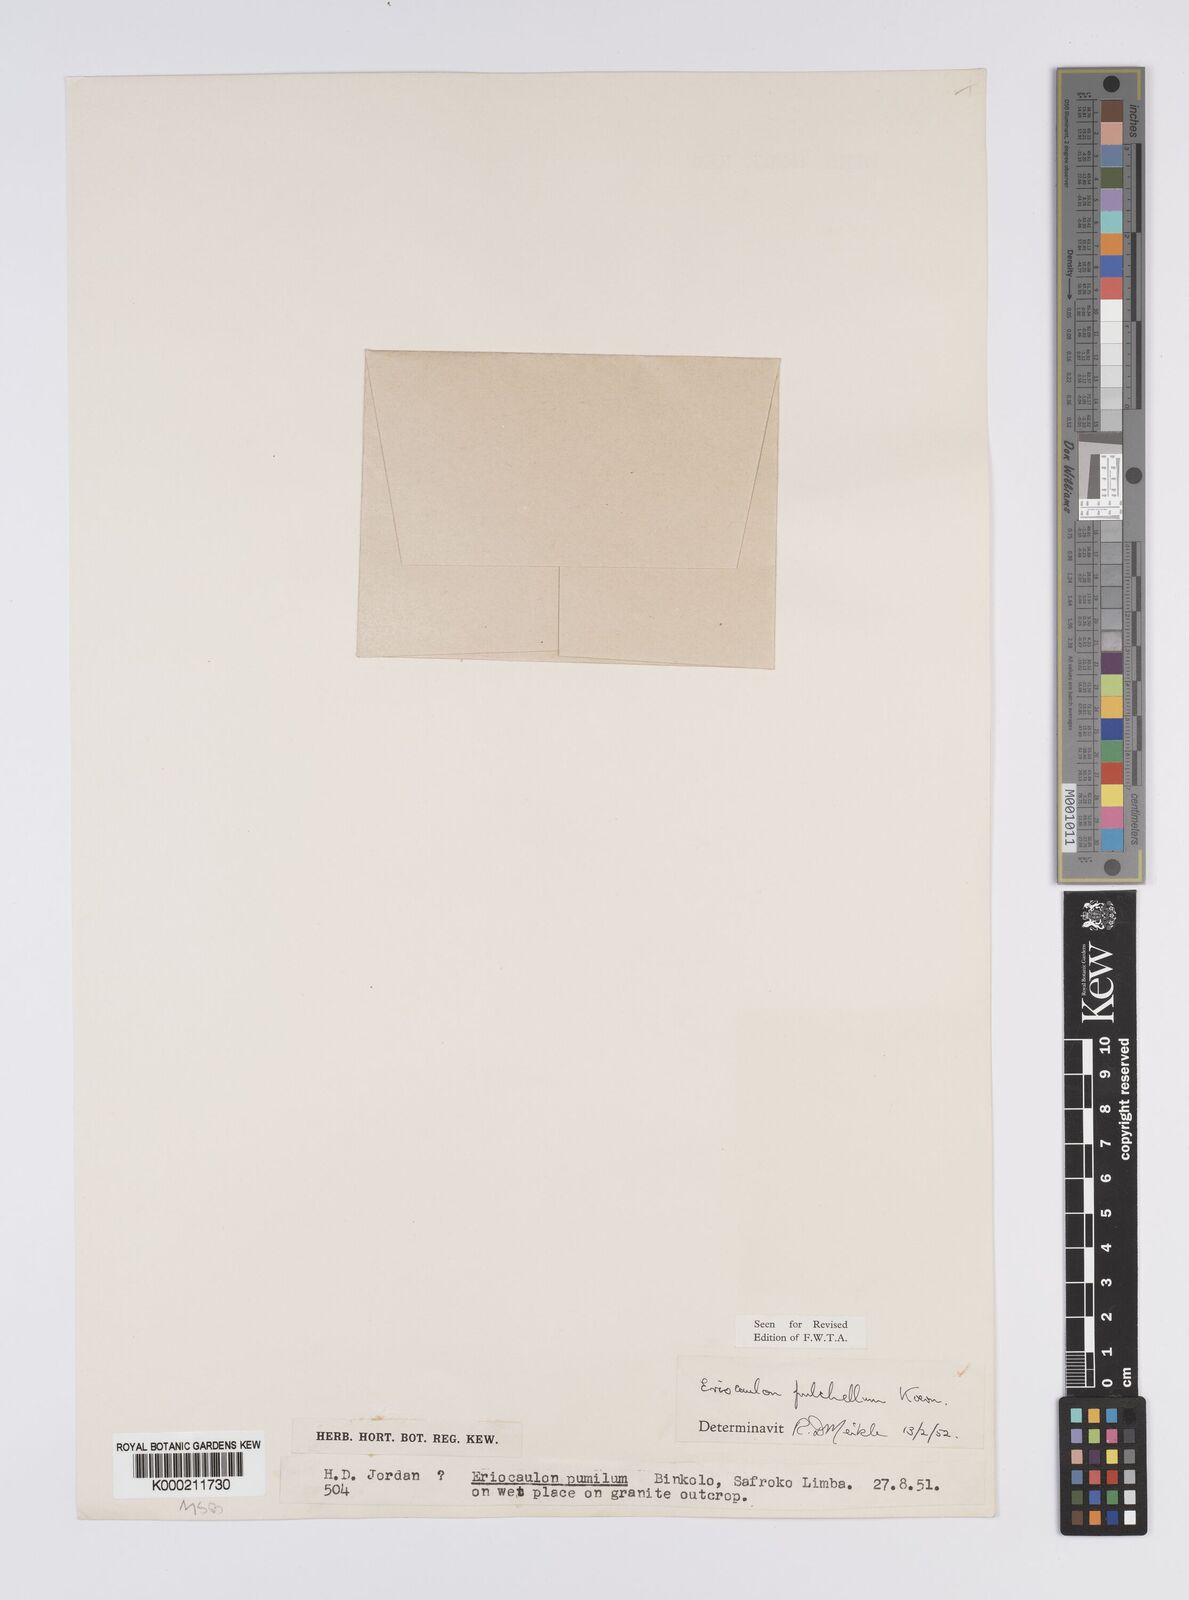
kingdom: Plantae
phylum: Tracheophyta
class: Liliopsida
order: Poales
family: Eriocaulaceae
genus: Eriocaulon
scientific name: Eriocaulon
